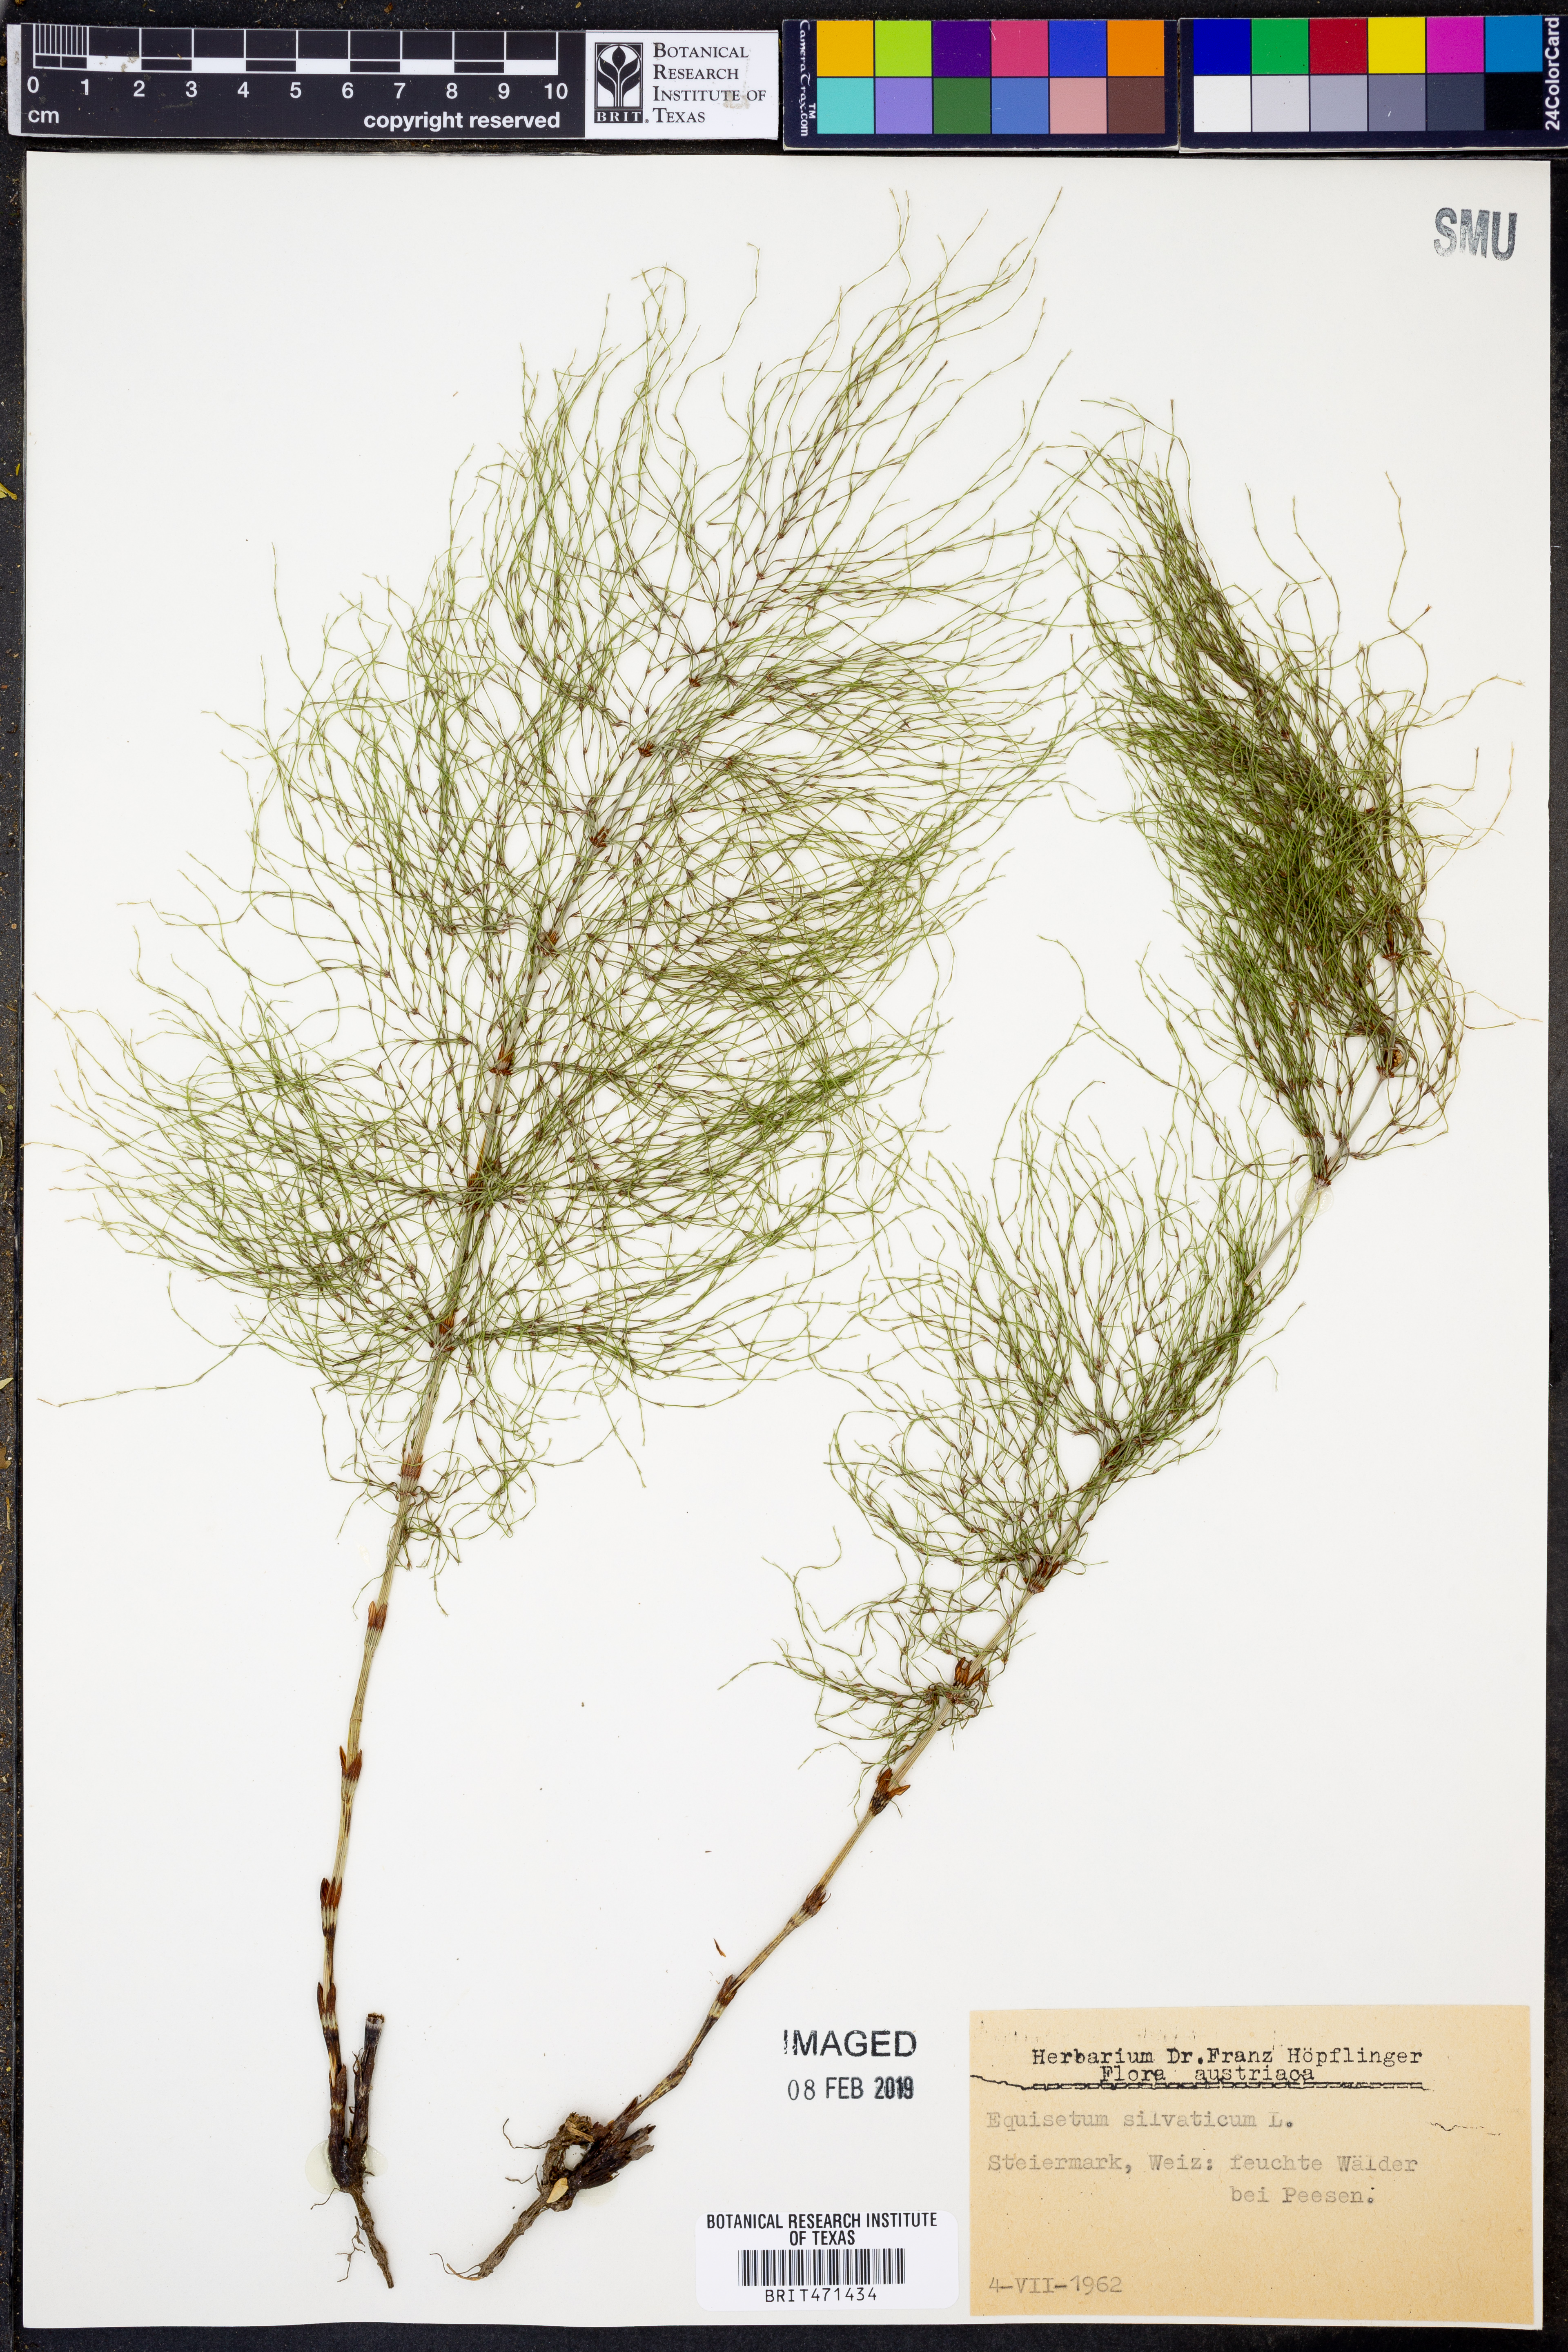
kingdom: Plantae
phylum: Tracheophyta
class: Polypodiopsida
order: Equisetales
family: Equisetaceae
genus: Equisetum
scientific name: Equisetum sylvaticum
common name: Wood horsetail
